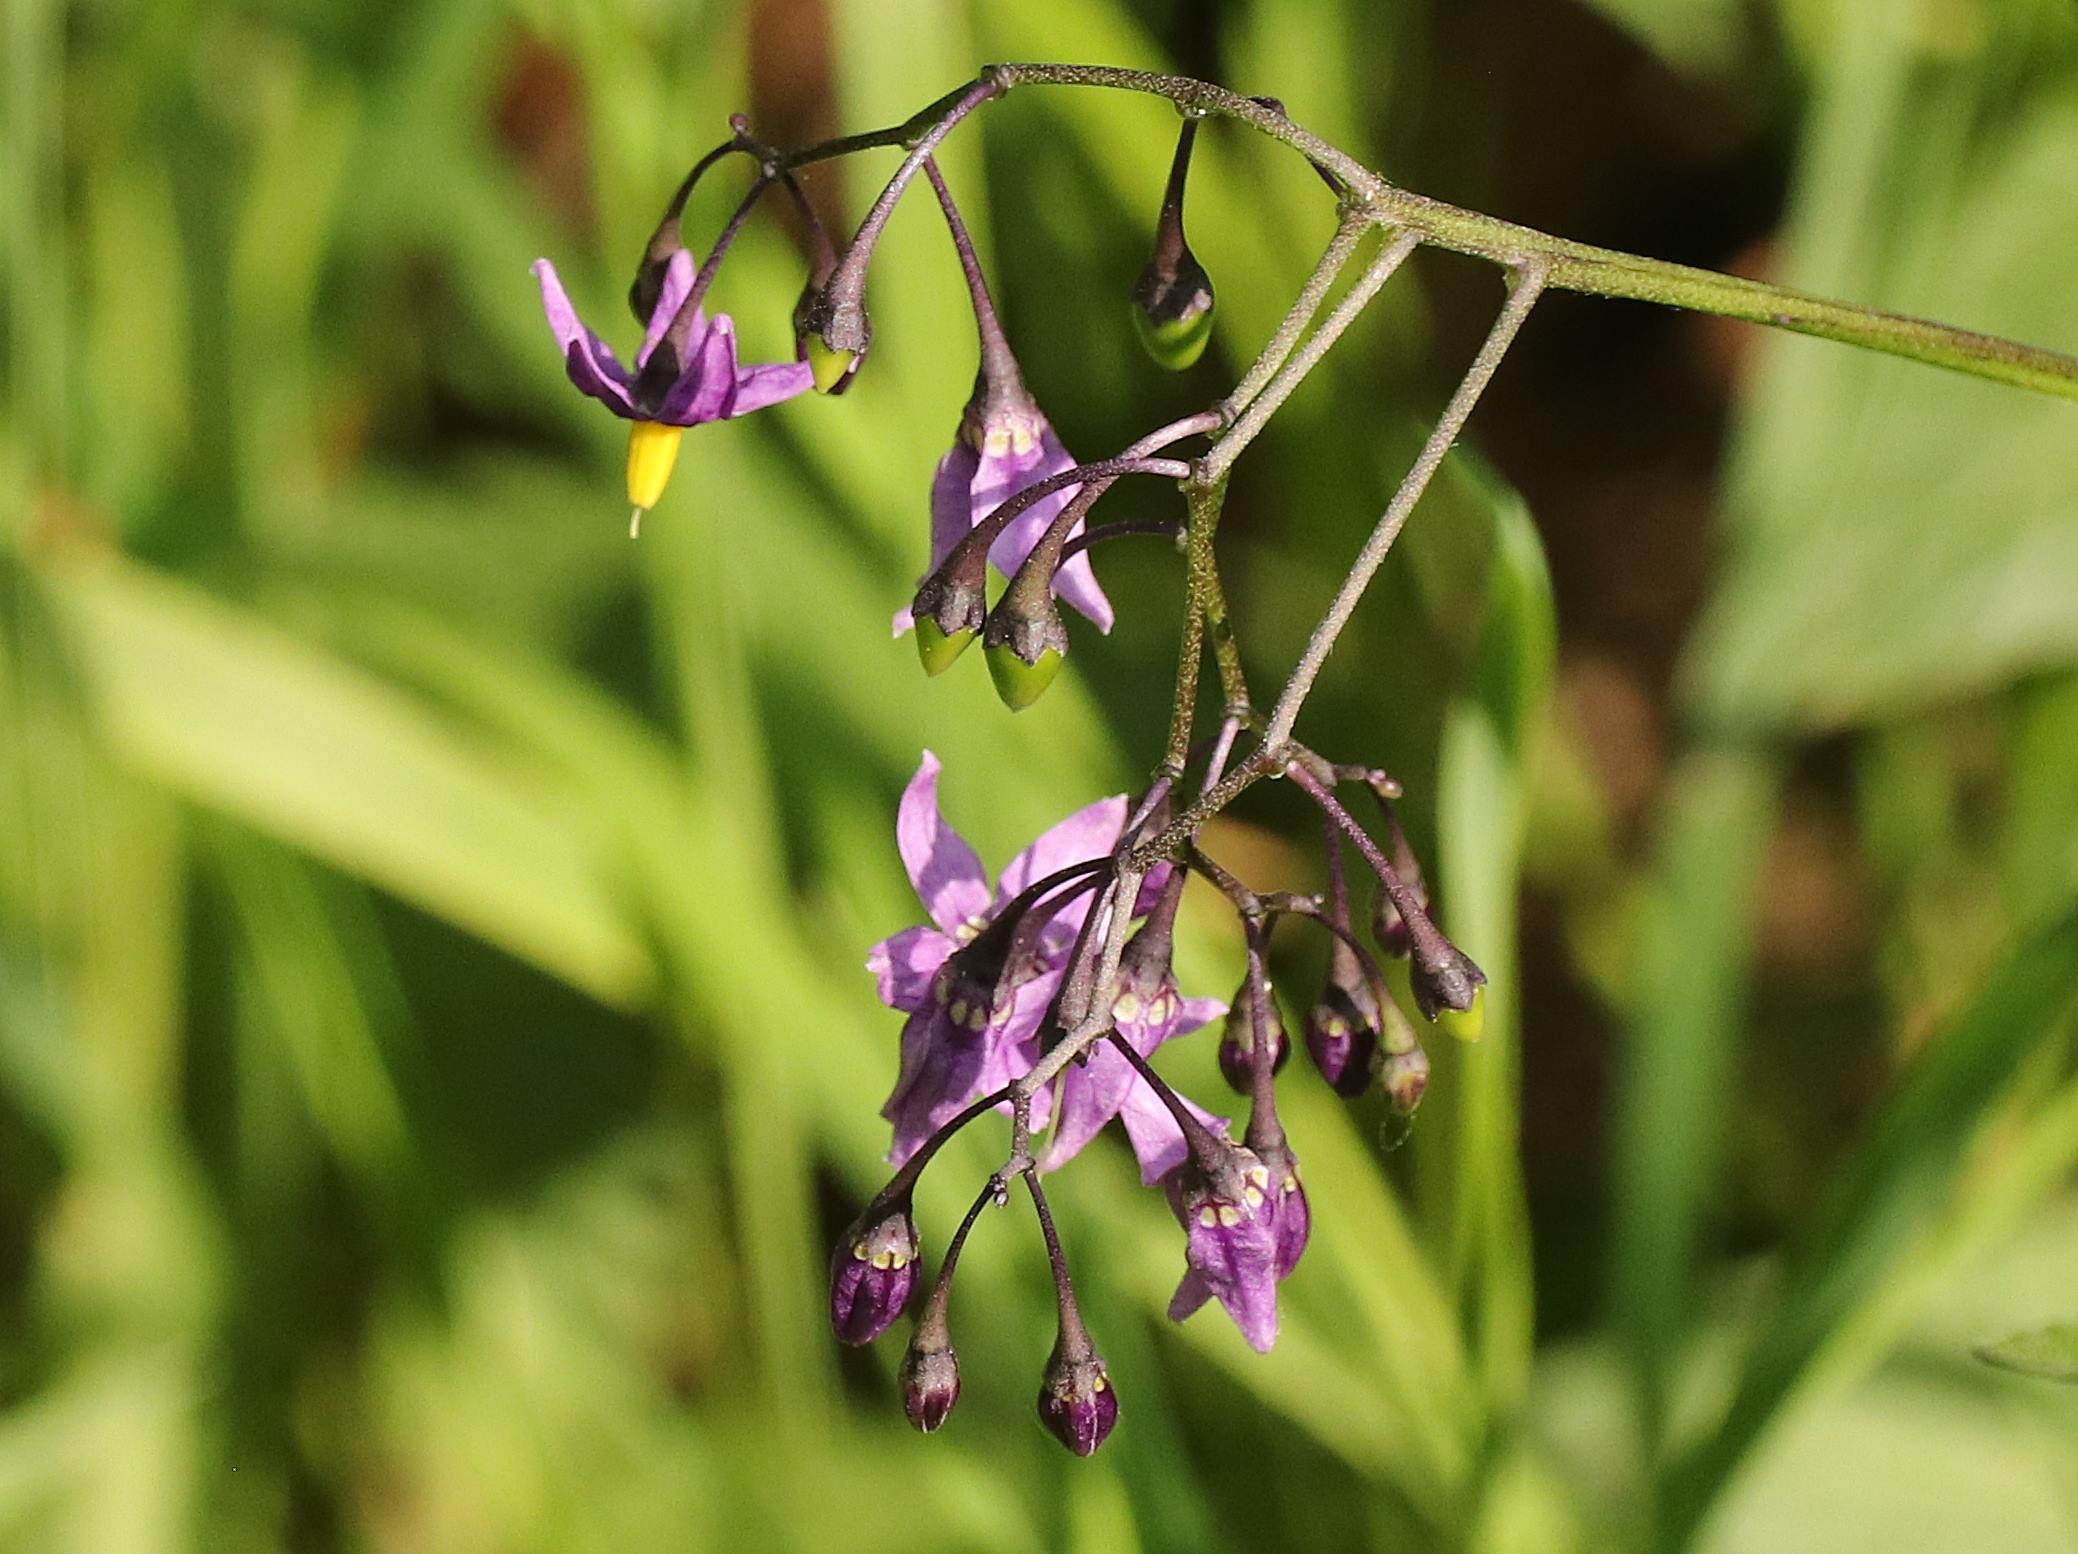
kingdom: Plantae
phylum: Tracheophyta
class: Magnoliopsida
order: Solanales
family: Solanaceae
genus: Solanum
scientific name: Solanum dulcamara
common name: Bittersød natskygge
